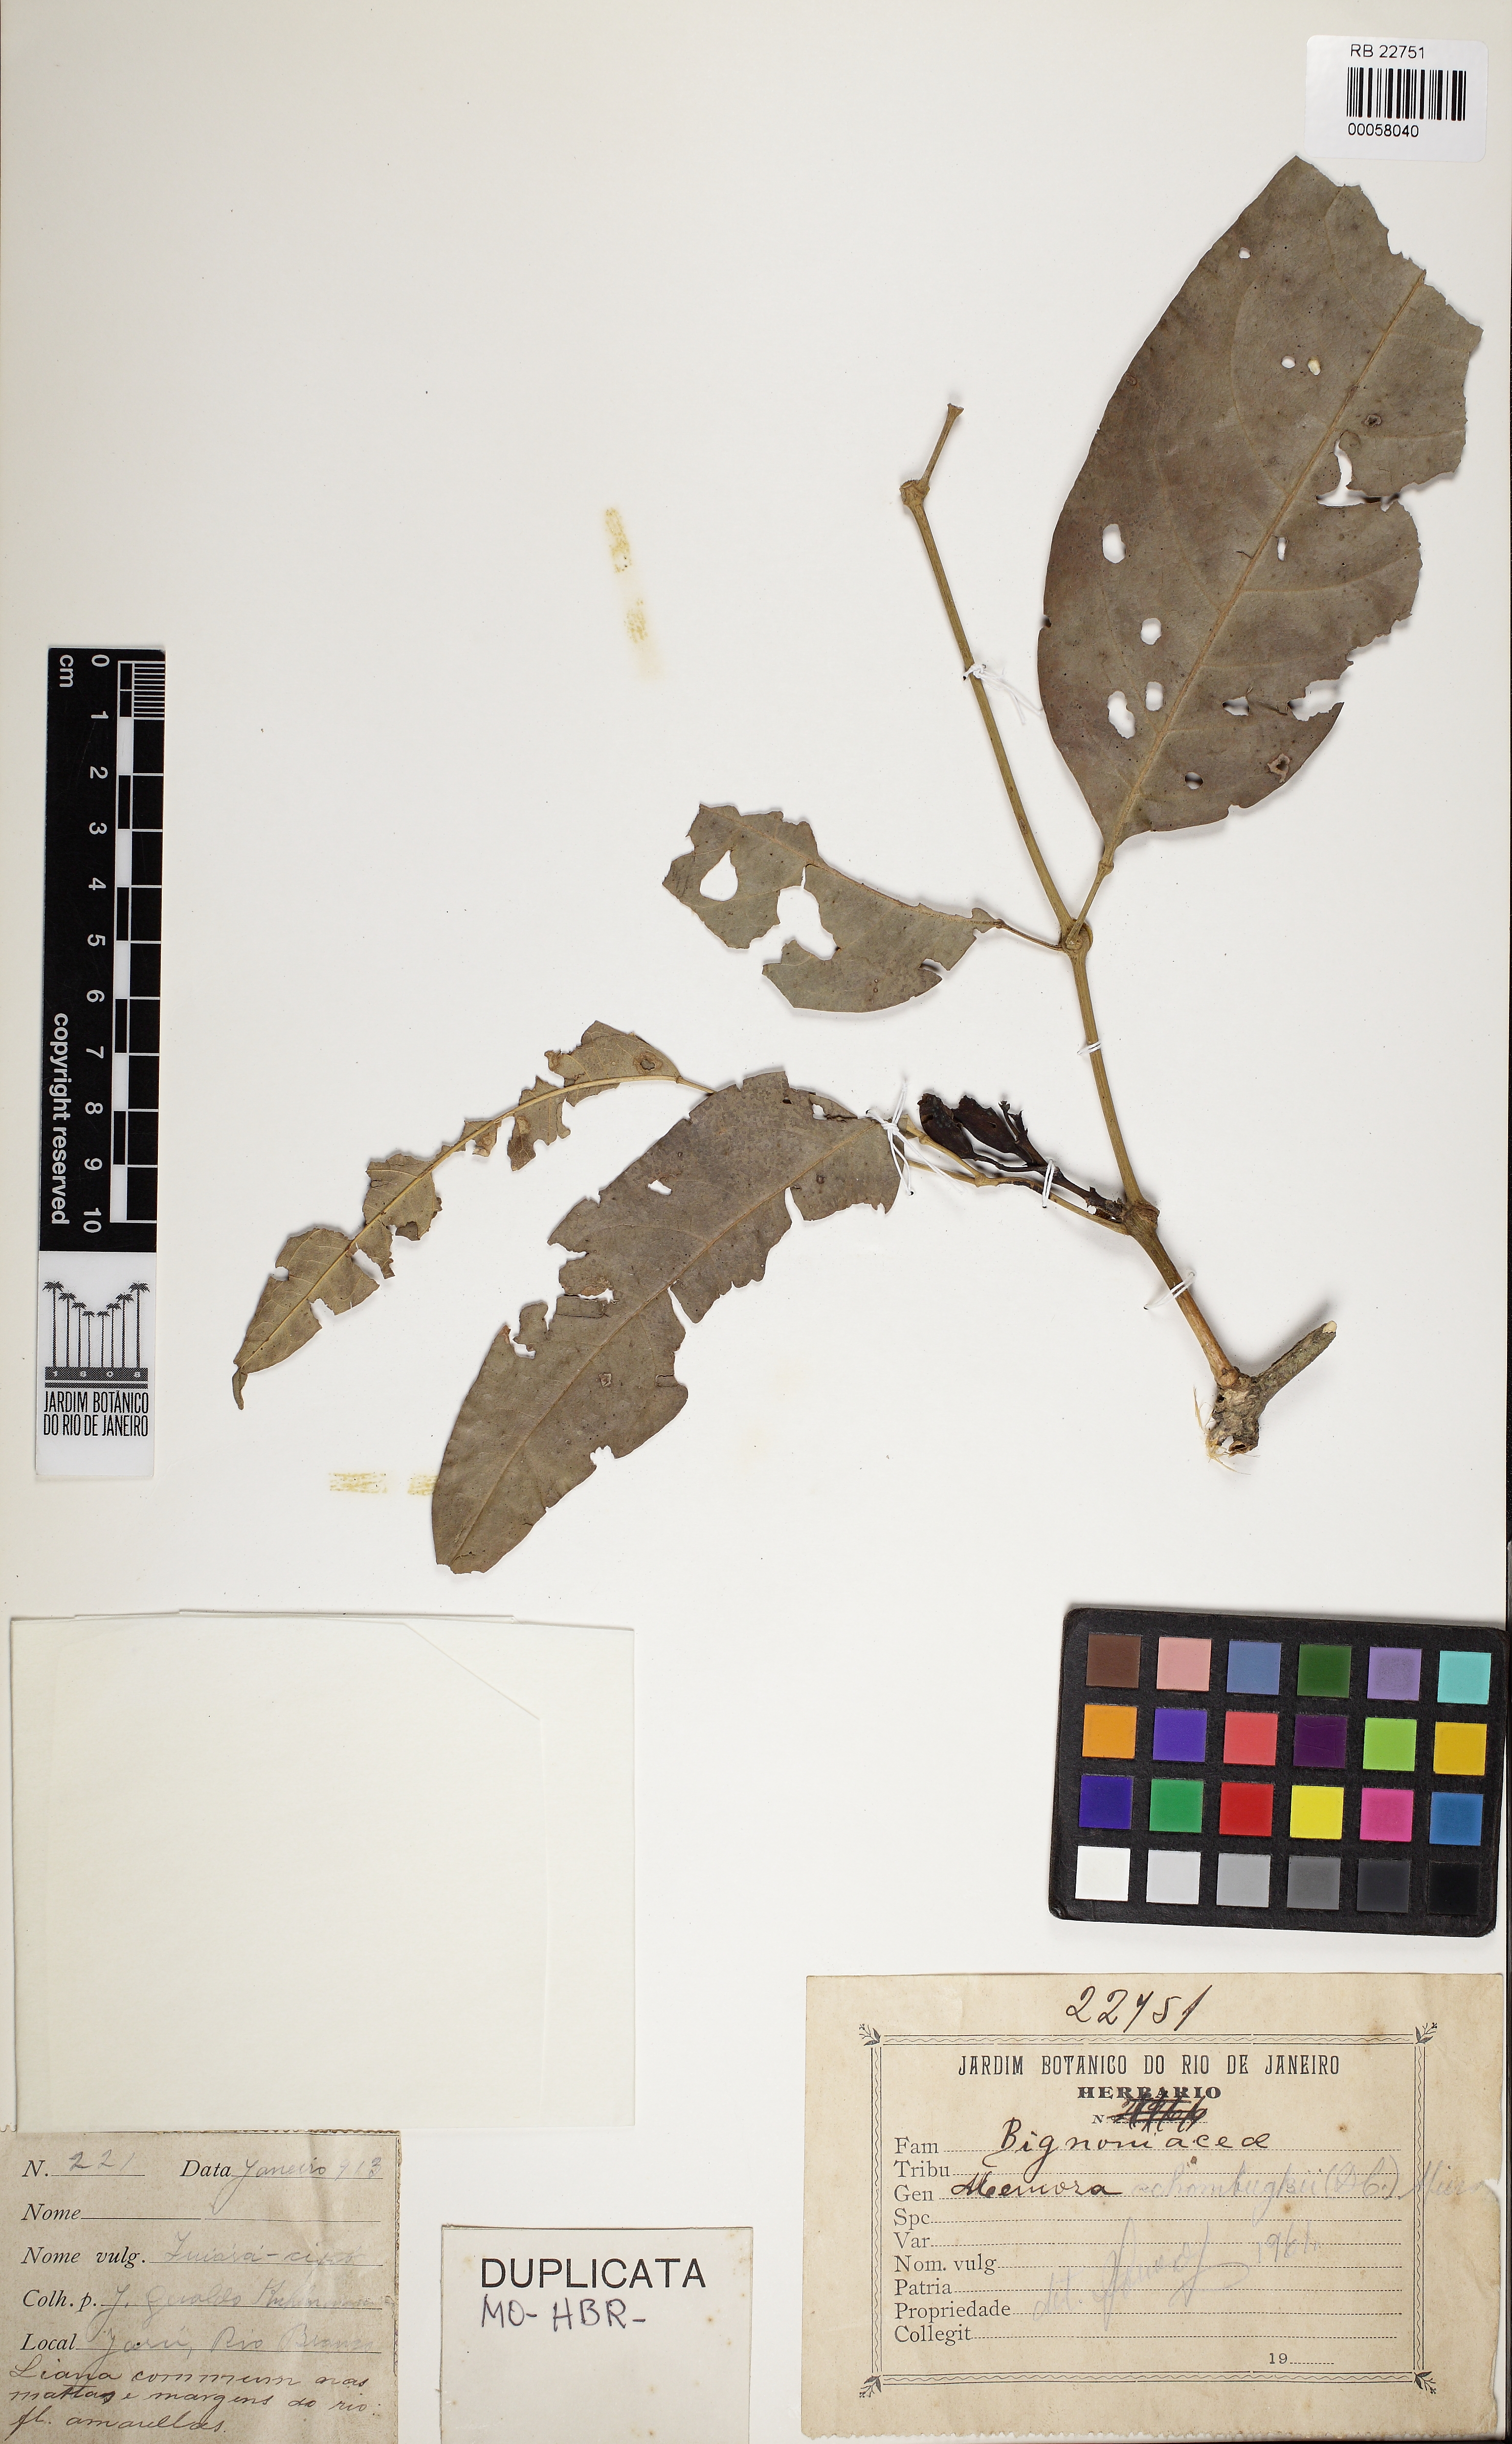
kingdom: Plantae
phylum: Tracheophyta
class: Magnoliopsida
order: Lamiales
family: Bignoniaceae
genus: Adenocalymma
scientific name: Adenocalymma schomburgkii
